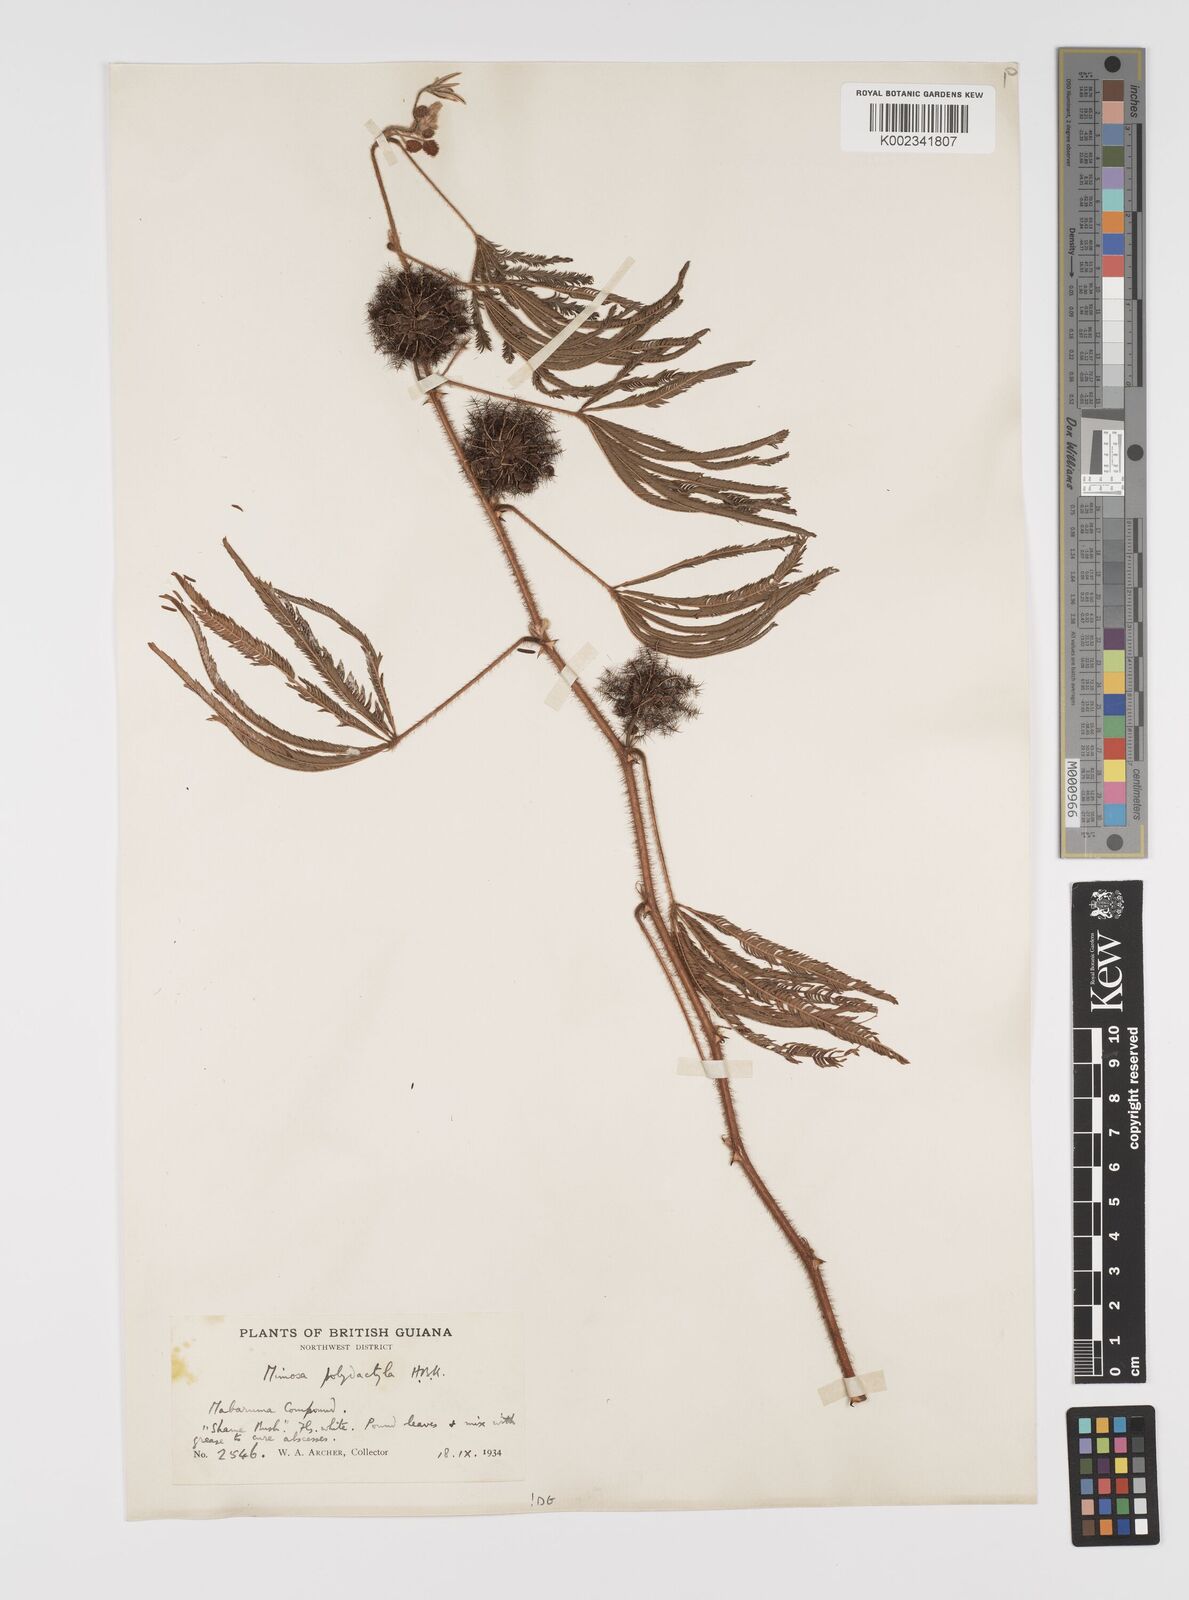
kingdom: Plantae
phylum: Tracheophyta
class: Magnoliopsida
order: Fabales
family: Fabaceae
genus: Mimosa
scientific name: Mimosa polydactyla
